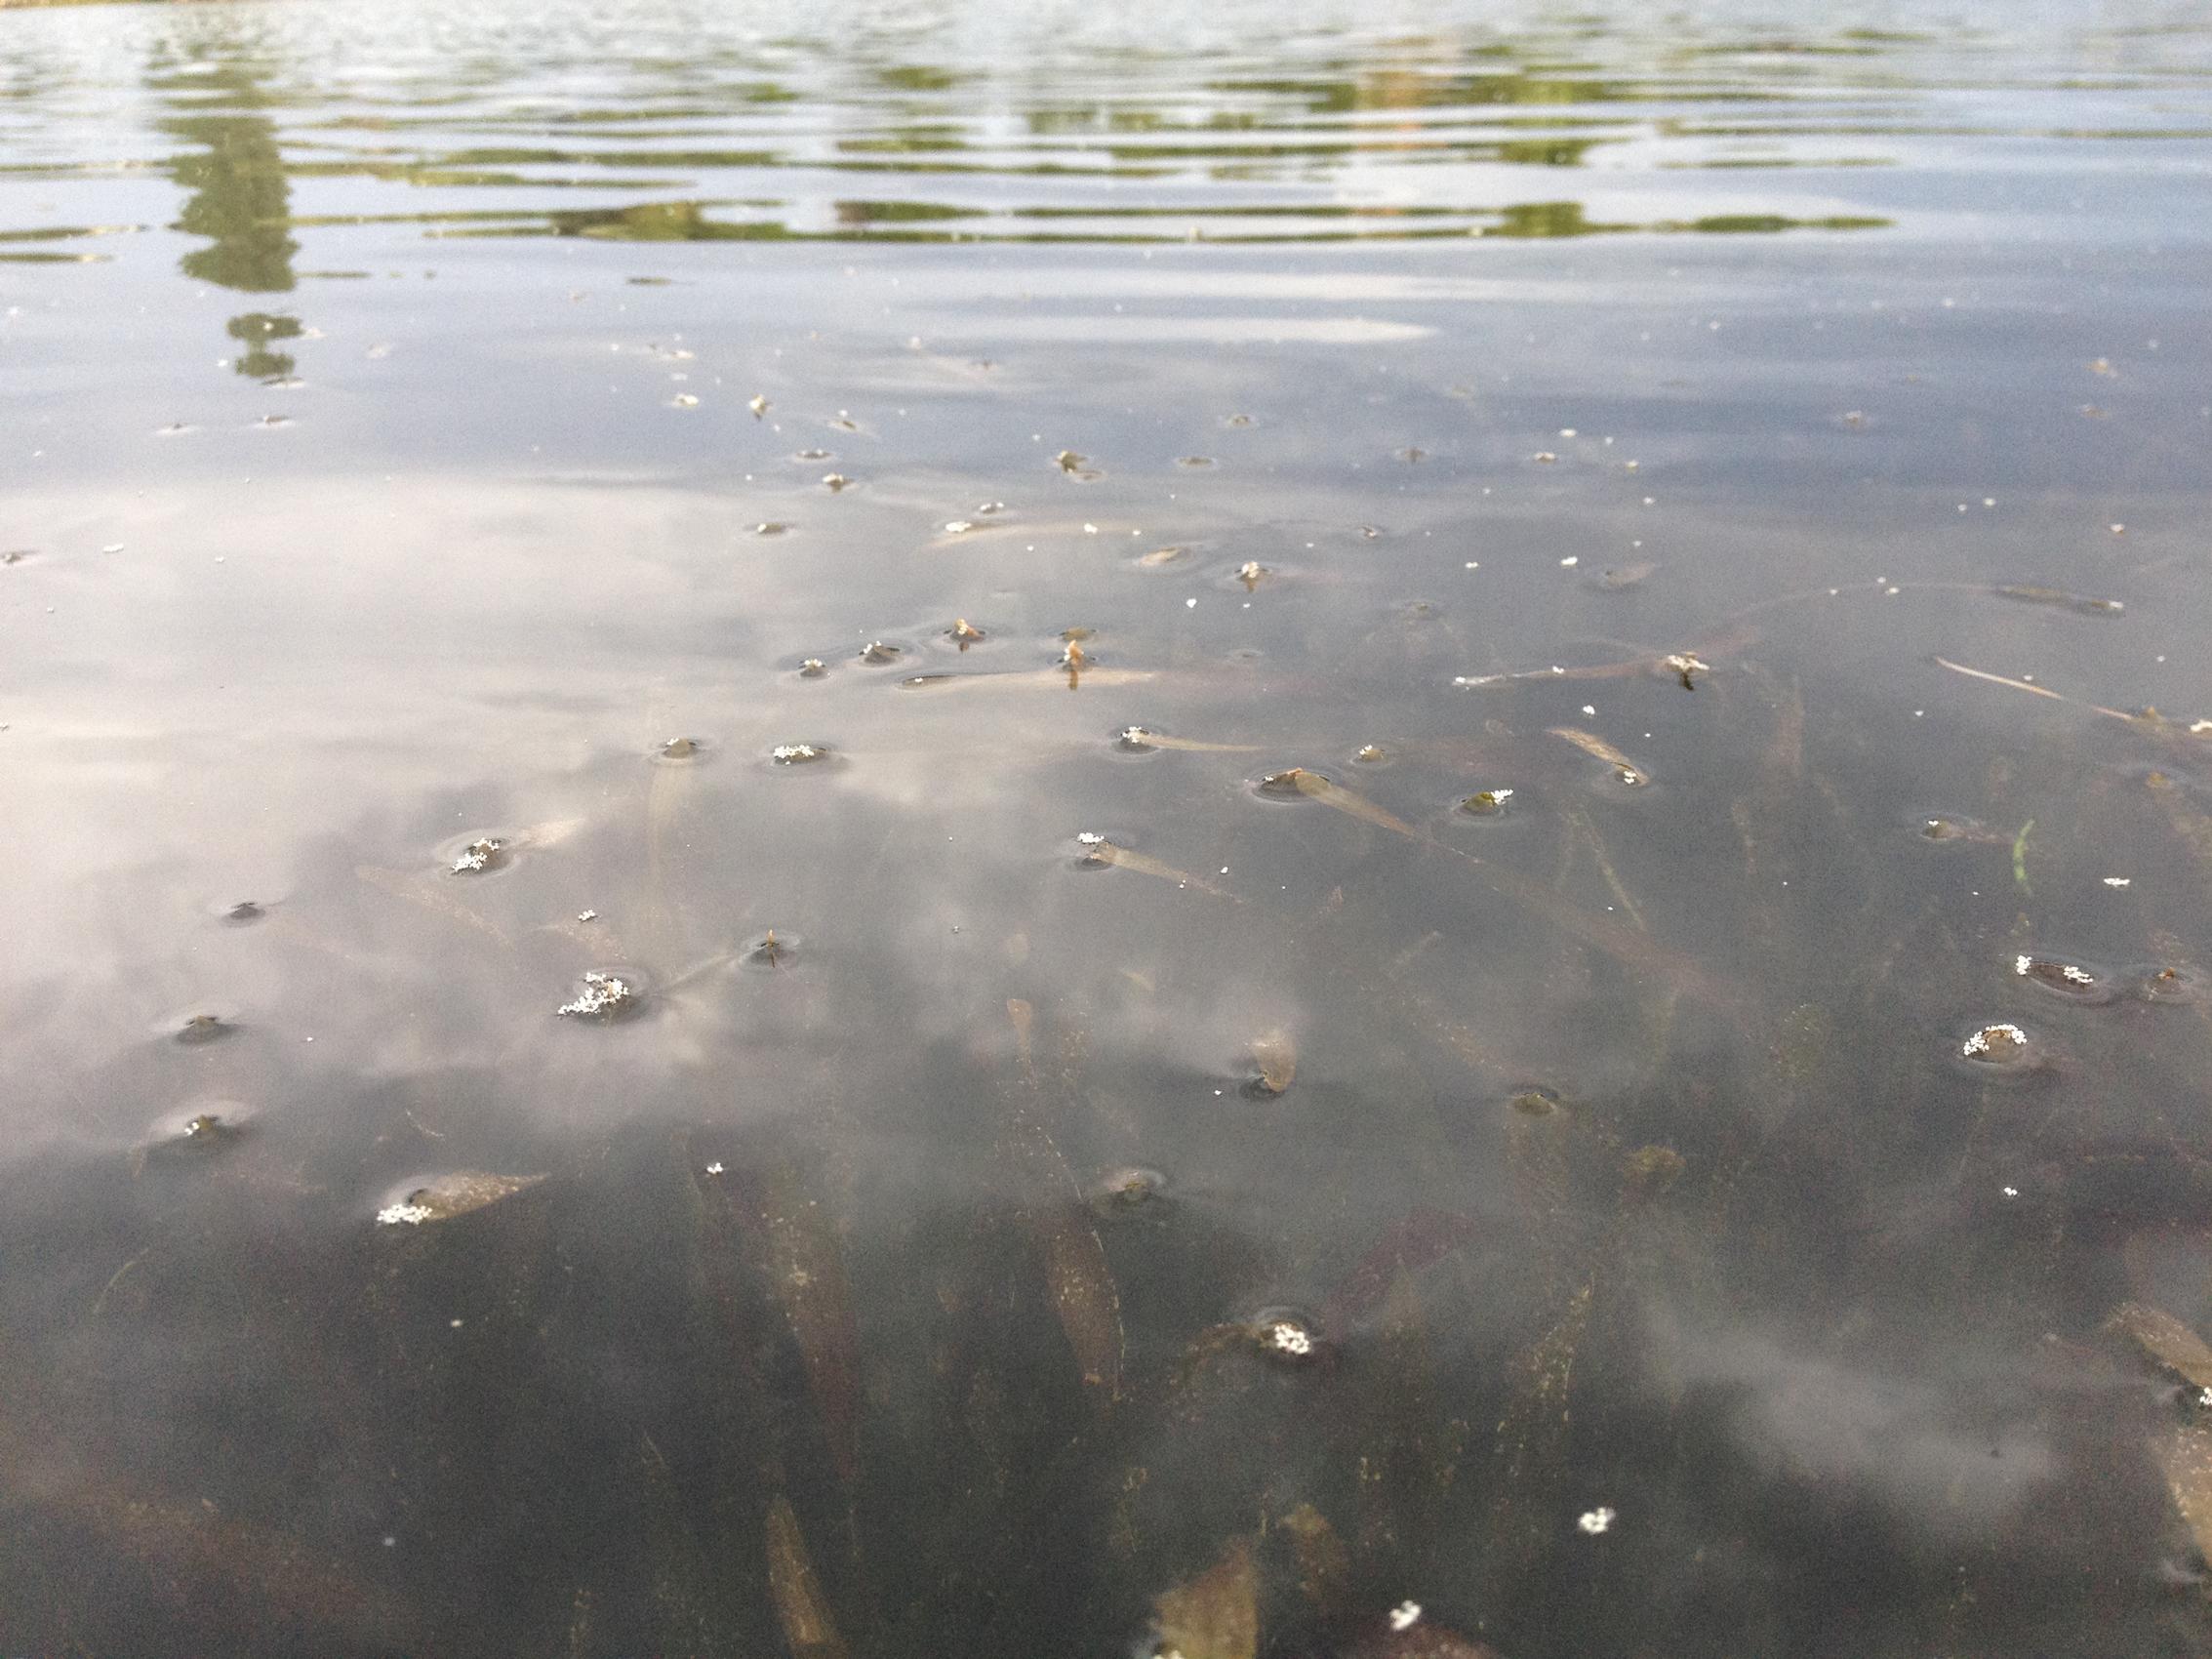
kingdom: Plantae
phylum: Tracheophyta
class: Liliopsida
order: Alismatales
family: Hydrocharitaceae
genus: Vallisneria
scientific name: Vallisneria spiralis
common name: Tapegrass
